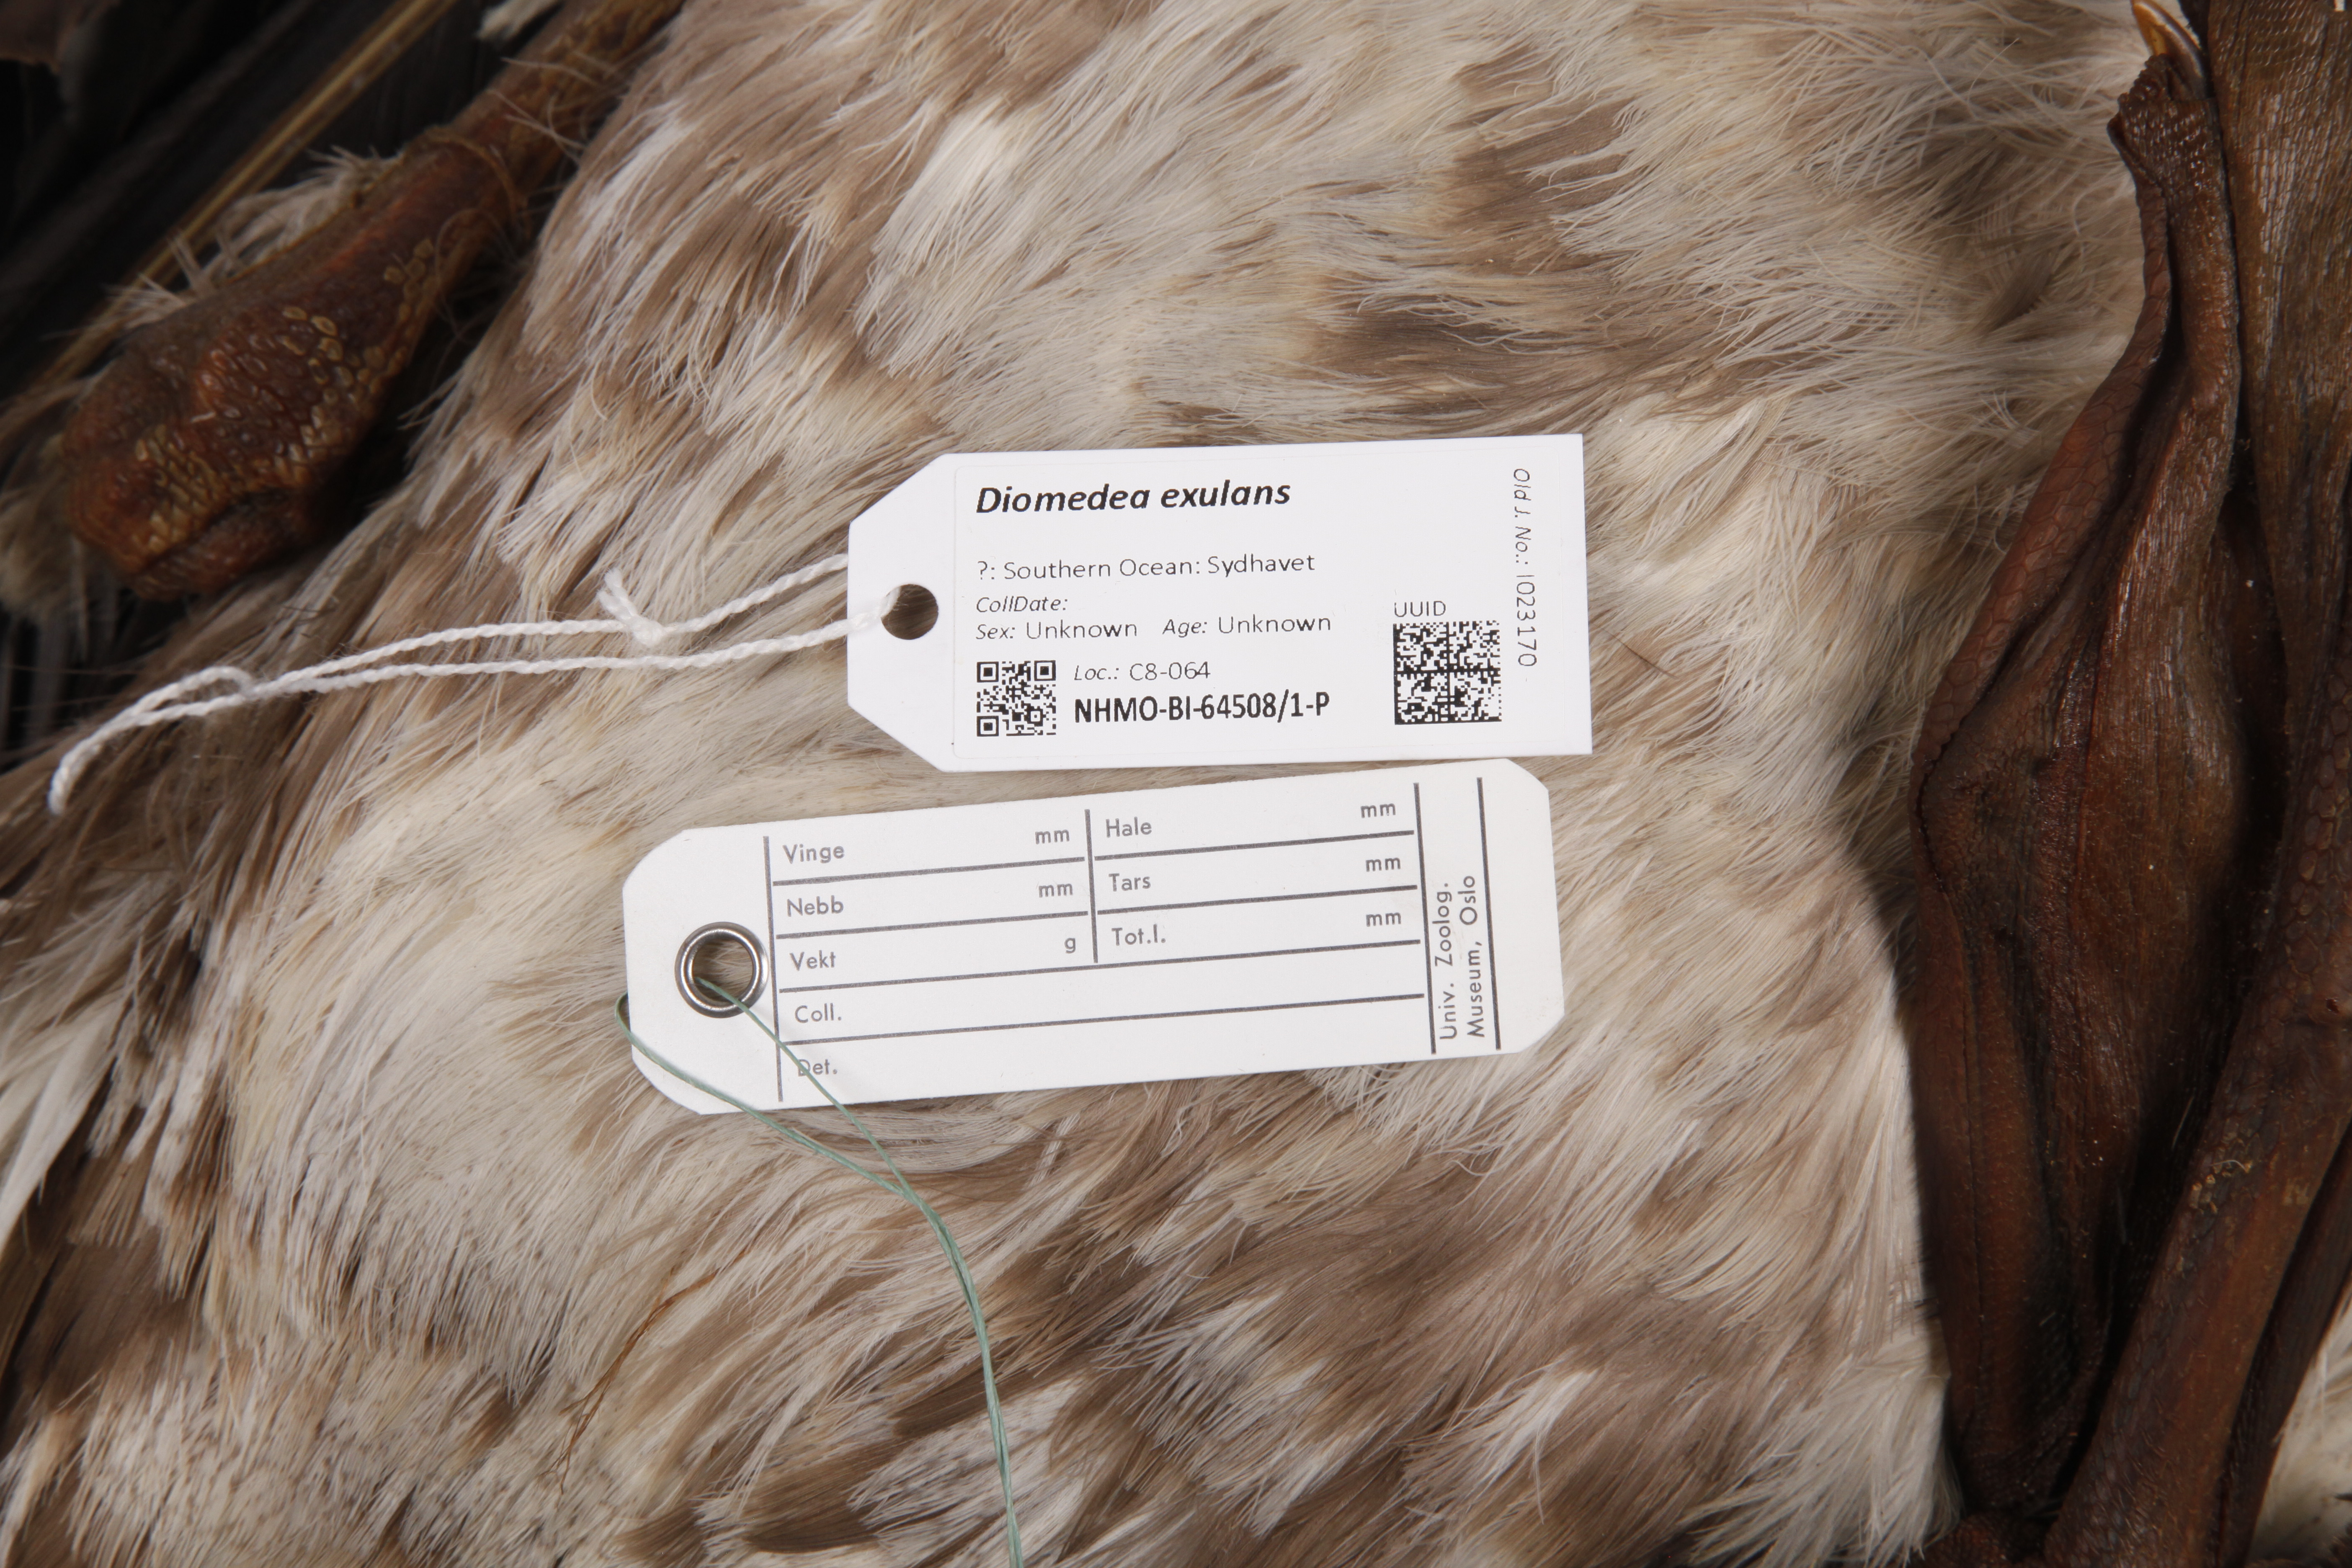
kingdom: Animalia
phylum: Chordata
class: Aves
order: Procellariiformes
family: Diomedeidae
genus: Diomedea
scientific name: Diomedea exulans
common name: Wandering albatross
